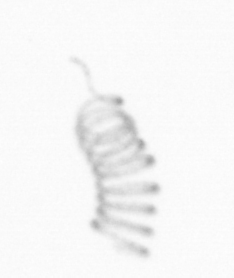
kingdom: Chromista
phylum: Ochrophyta
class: Bacillariophyceae
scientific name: Bacillariophyceae
